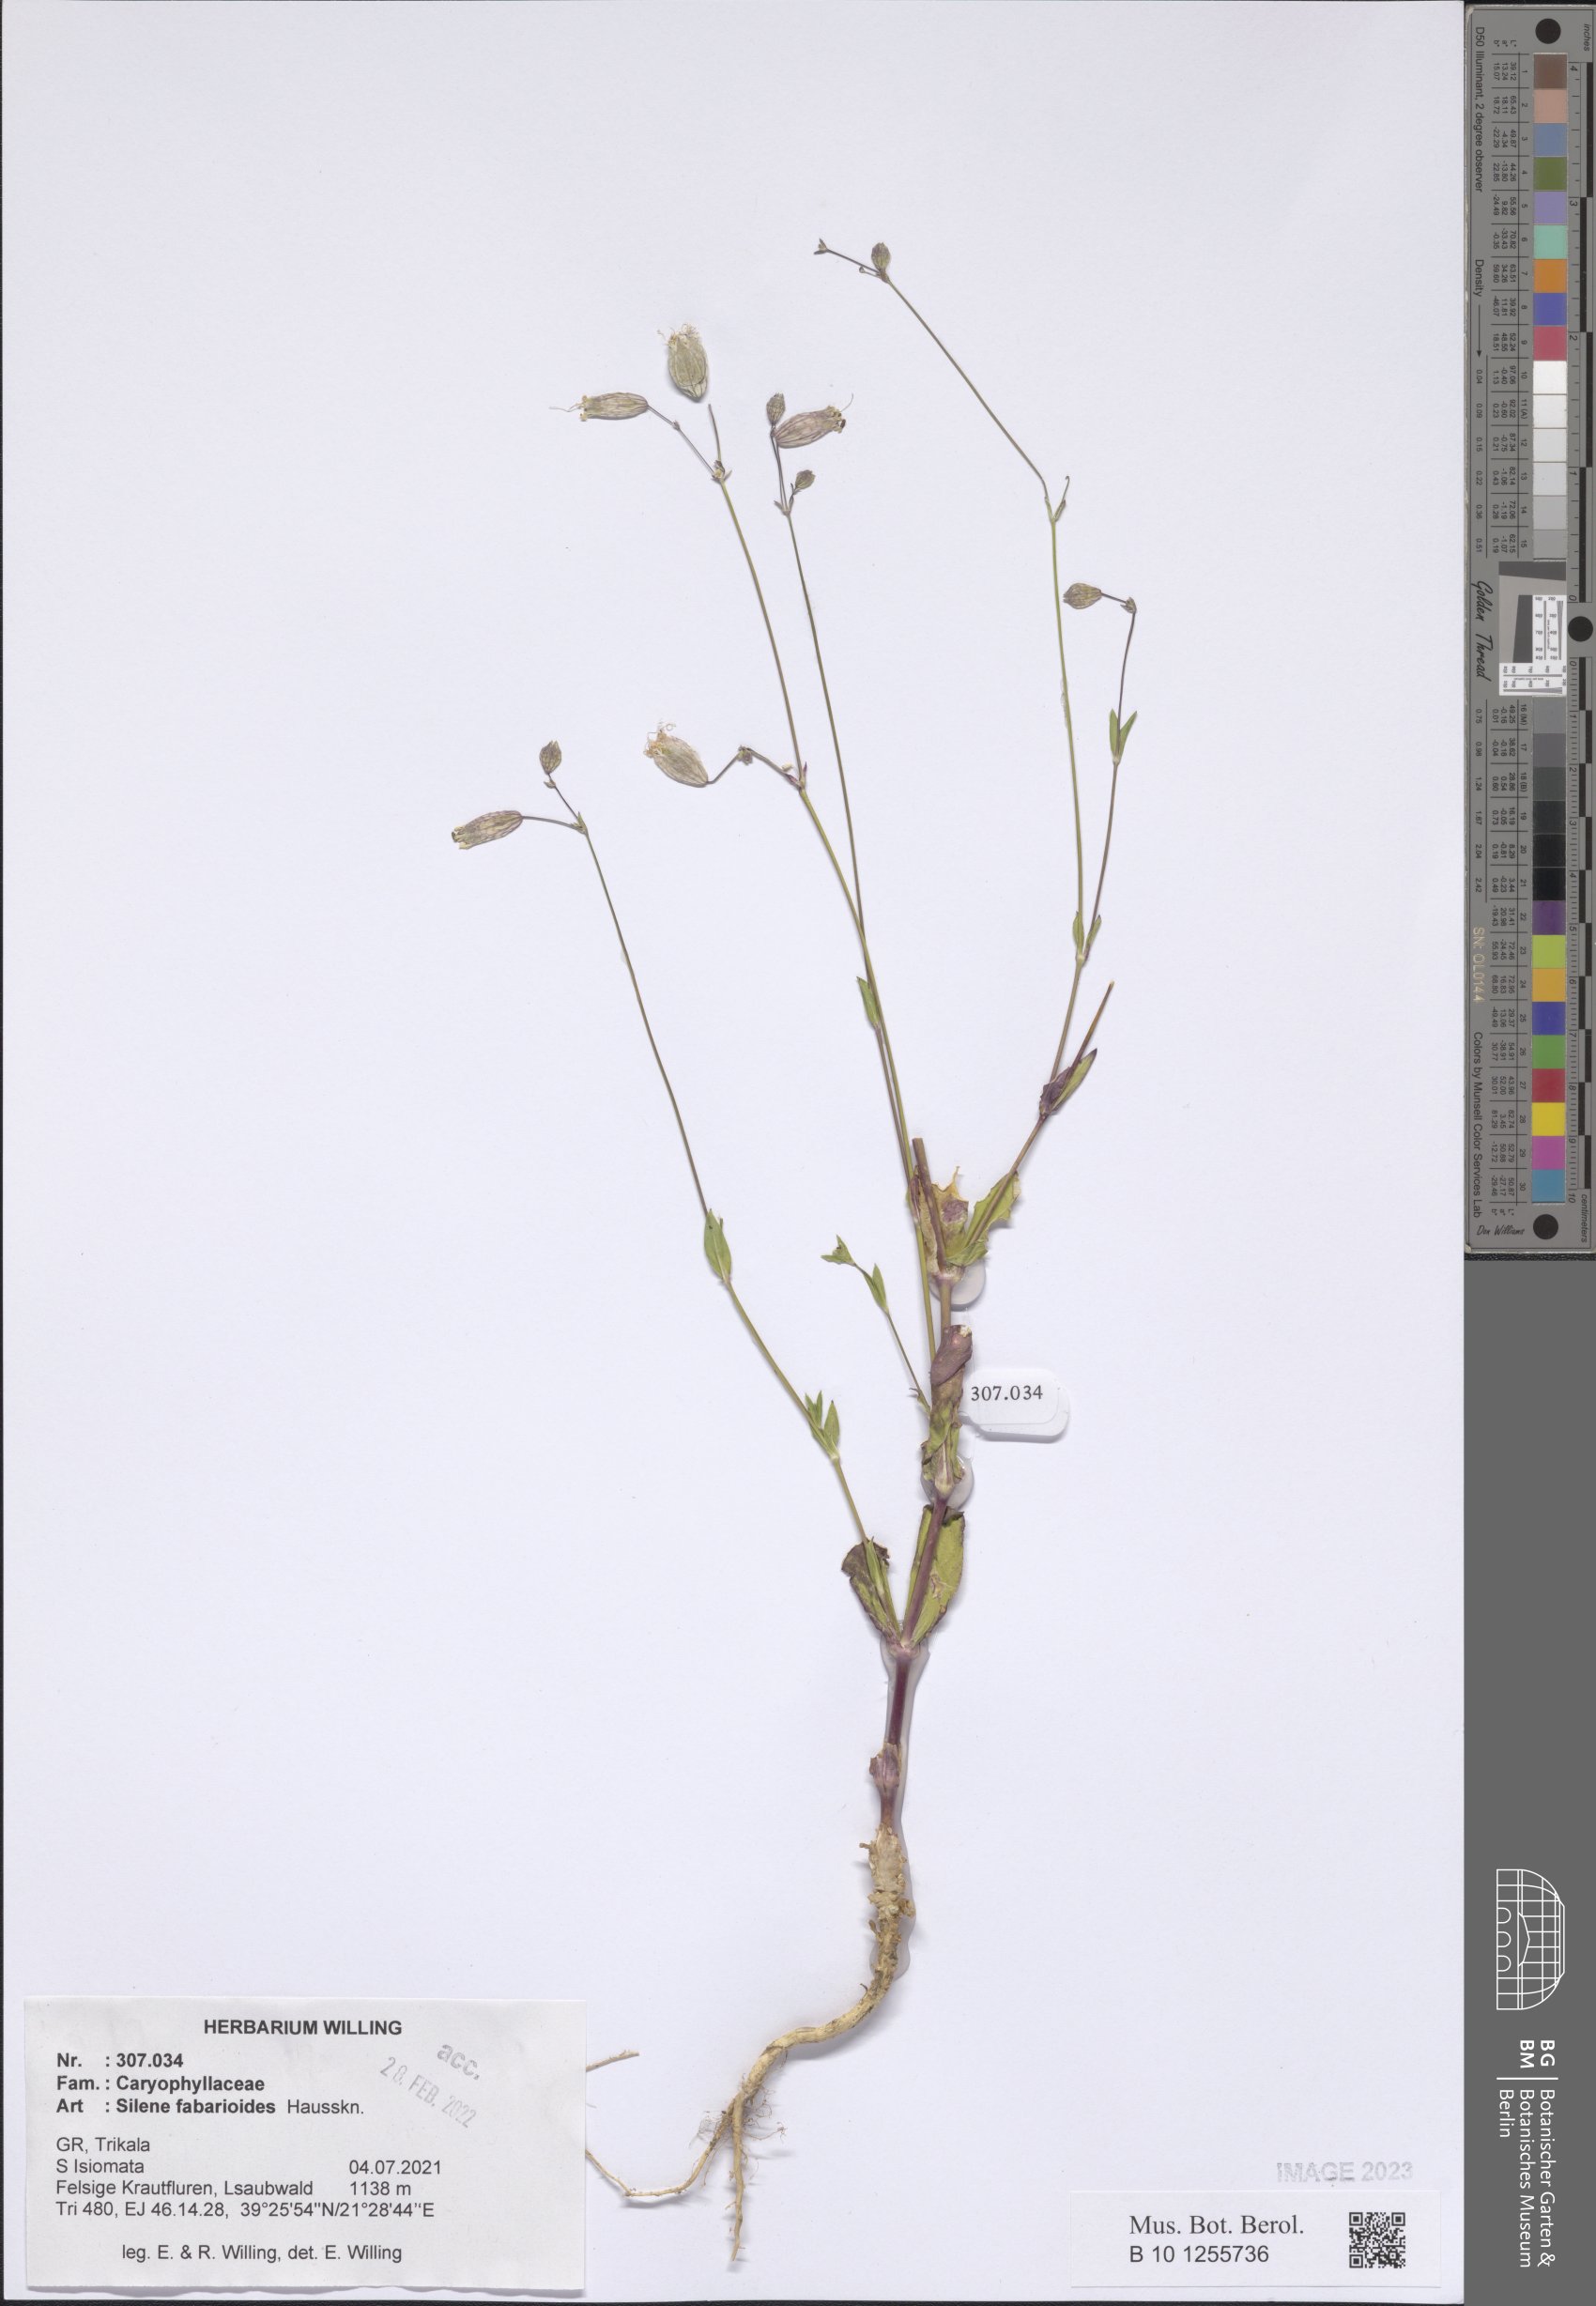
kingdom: Plantae
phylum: Tracheophyta
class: Magnoliopsida
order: Caryophyllales
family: Caryophyllaceae
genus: Silene
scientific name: Silene fabarioides
